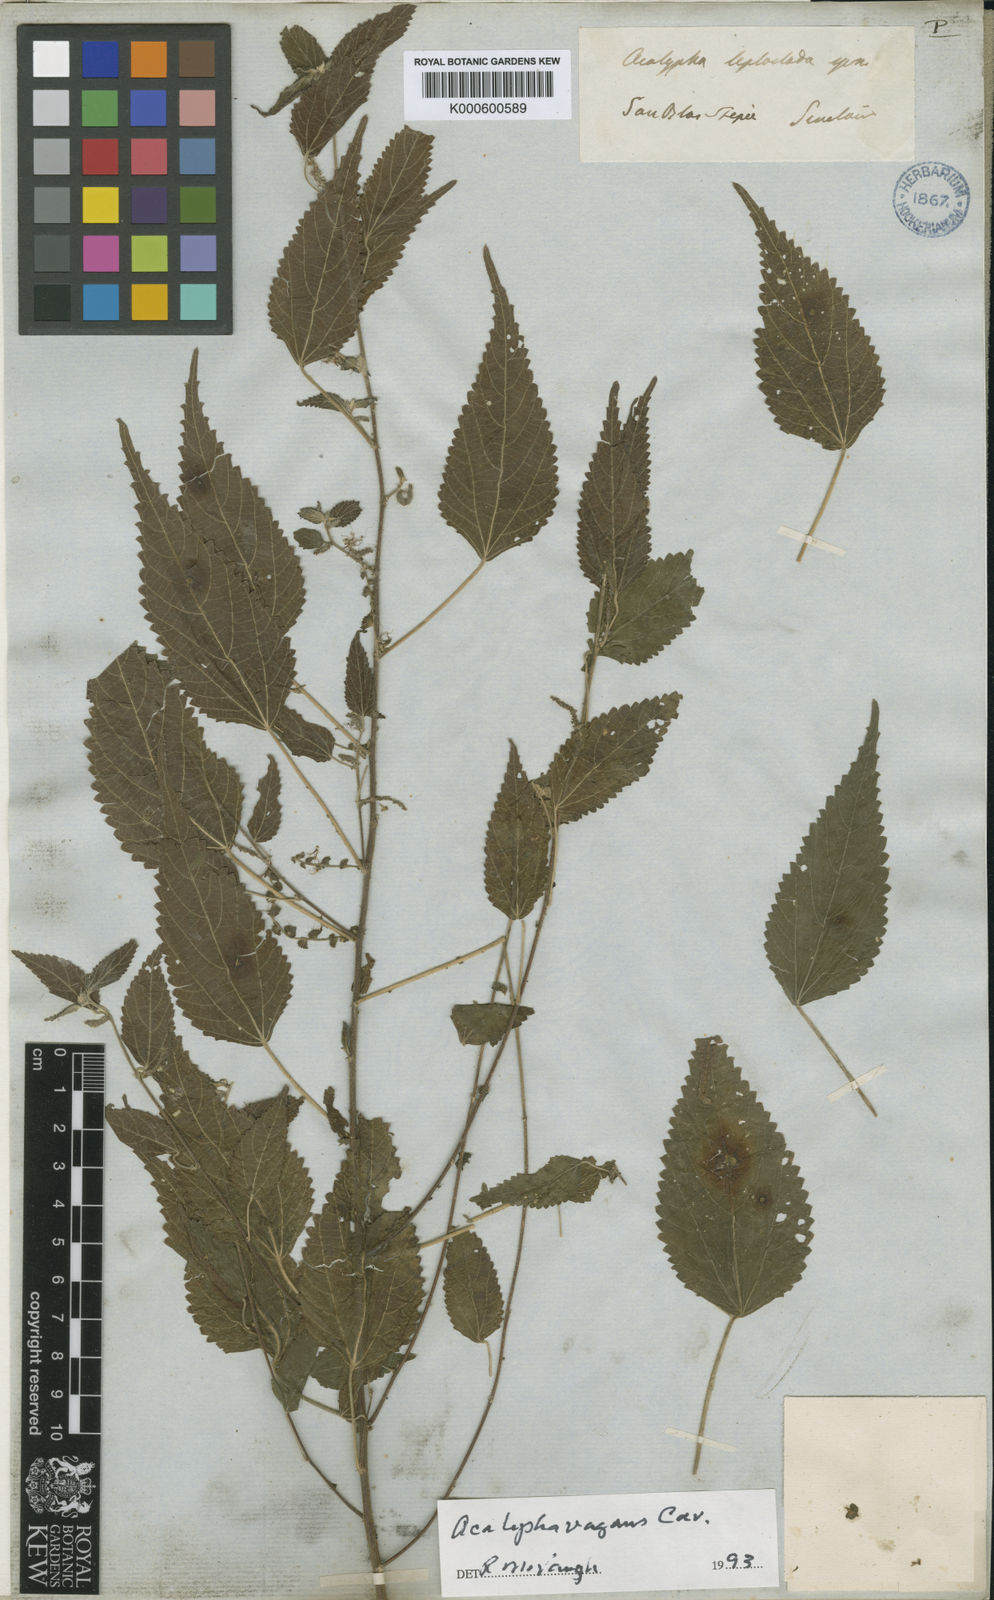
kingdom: Plantae
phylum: Tracheophyta
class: Magnoliopsida
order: Malpighiales
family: Euphorbiaceae
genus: Acalypha
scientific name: Acalypha leptoclada
